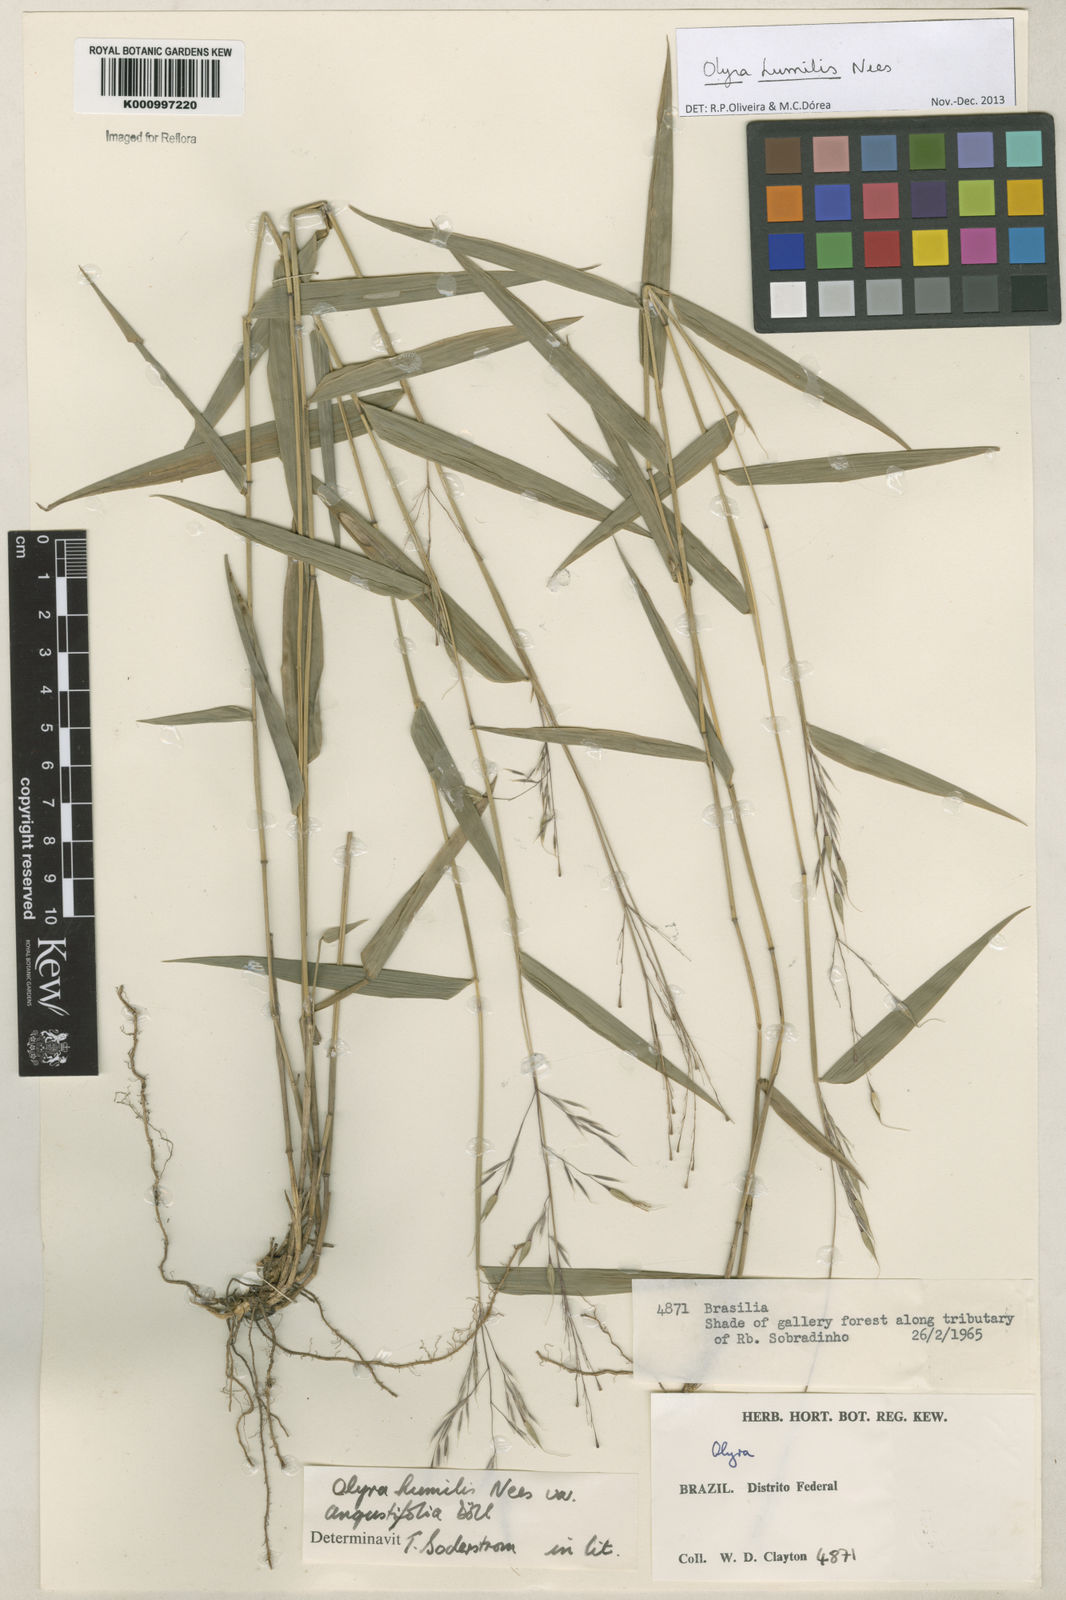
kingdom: Plantae
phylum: Tracheophyta
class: Liliopsida
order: Poales
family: Poaceae
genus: Olyra
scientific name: Olyra humilis
